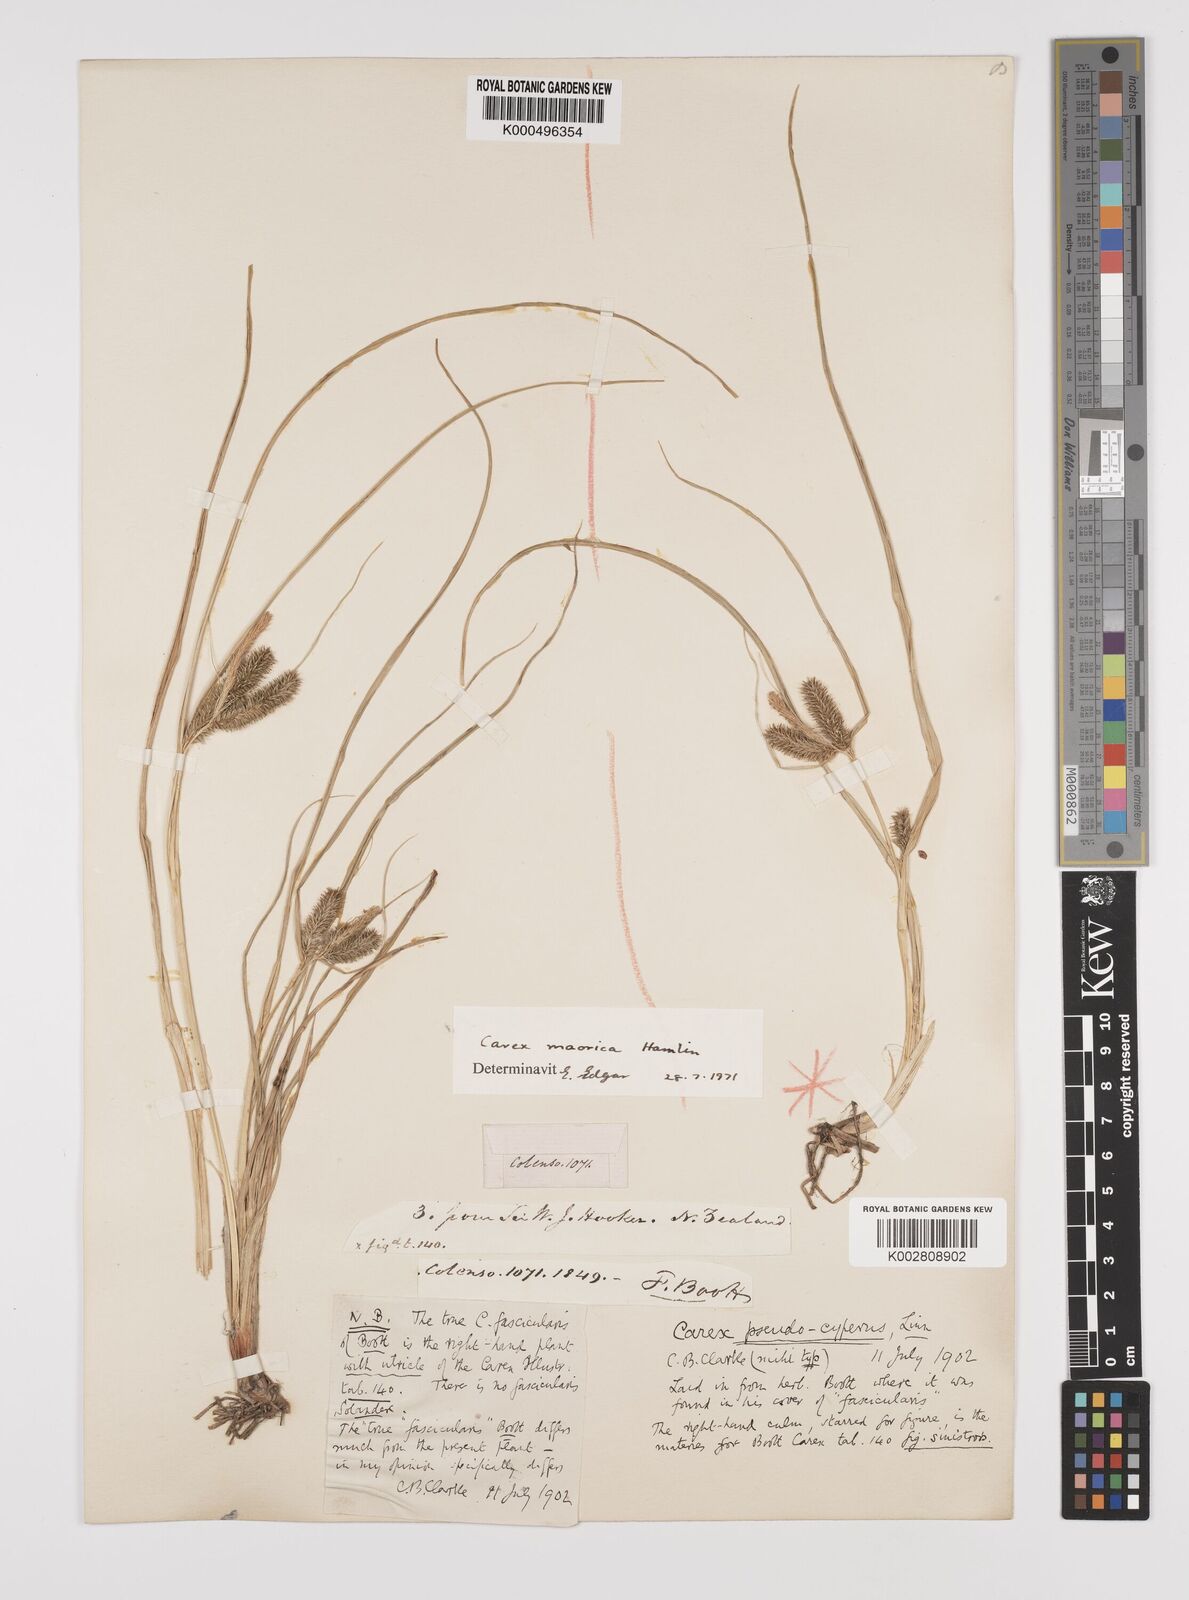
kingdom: Plantae
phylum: Tracheophyta
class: Liliopsida
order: Poales
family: Cyperaceae
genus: Carex
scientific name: Carex maorica
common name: Maori sedge
